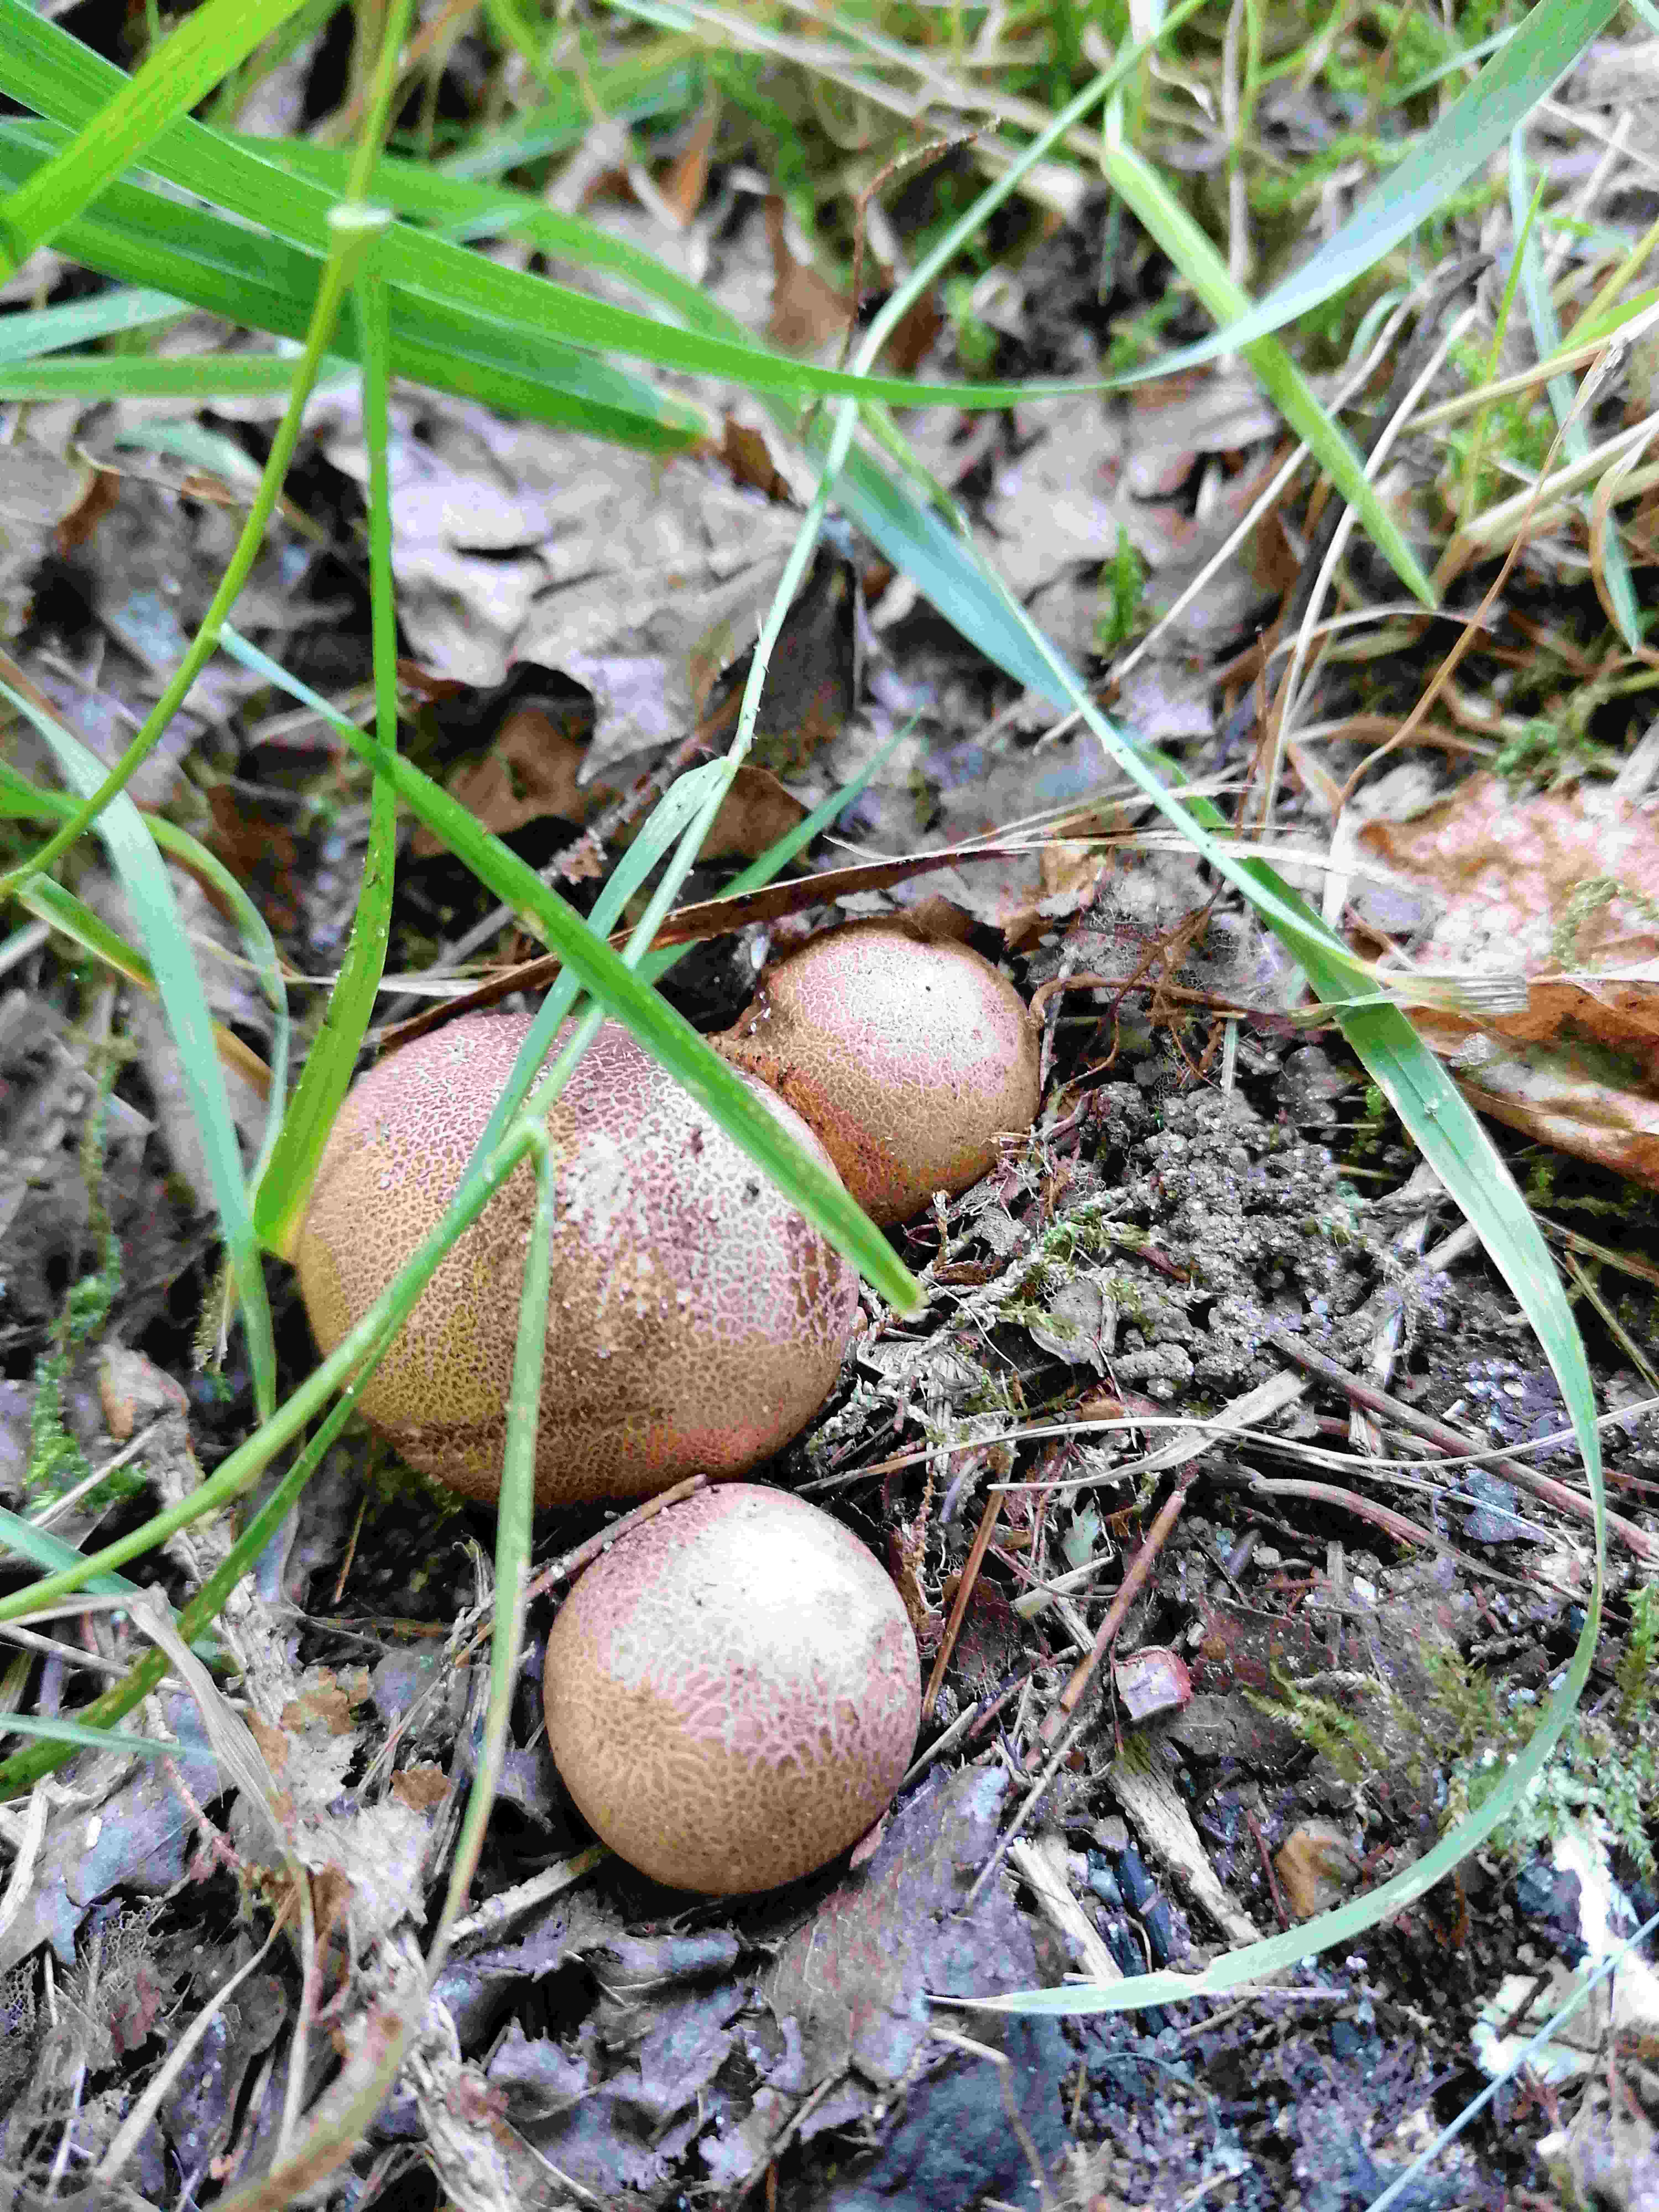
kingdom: Fungi
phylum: Basidiomycota
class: Agaricomycetes
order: Boletales
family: Sclerodermataceae
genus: Scleroderma
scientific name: Scleroderma citrinum
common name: almindelig bruskbold
